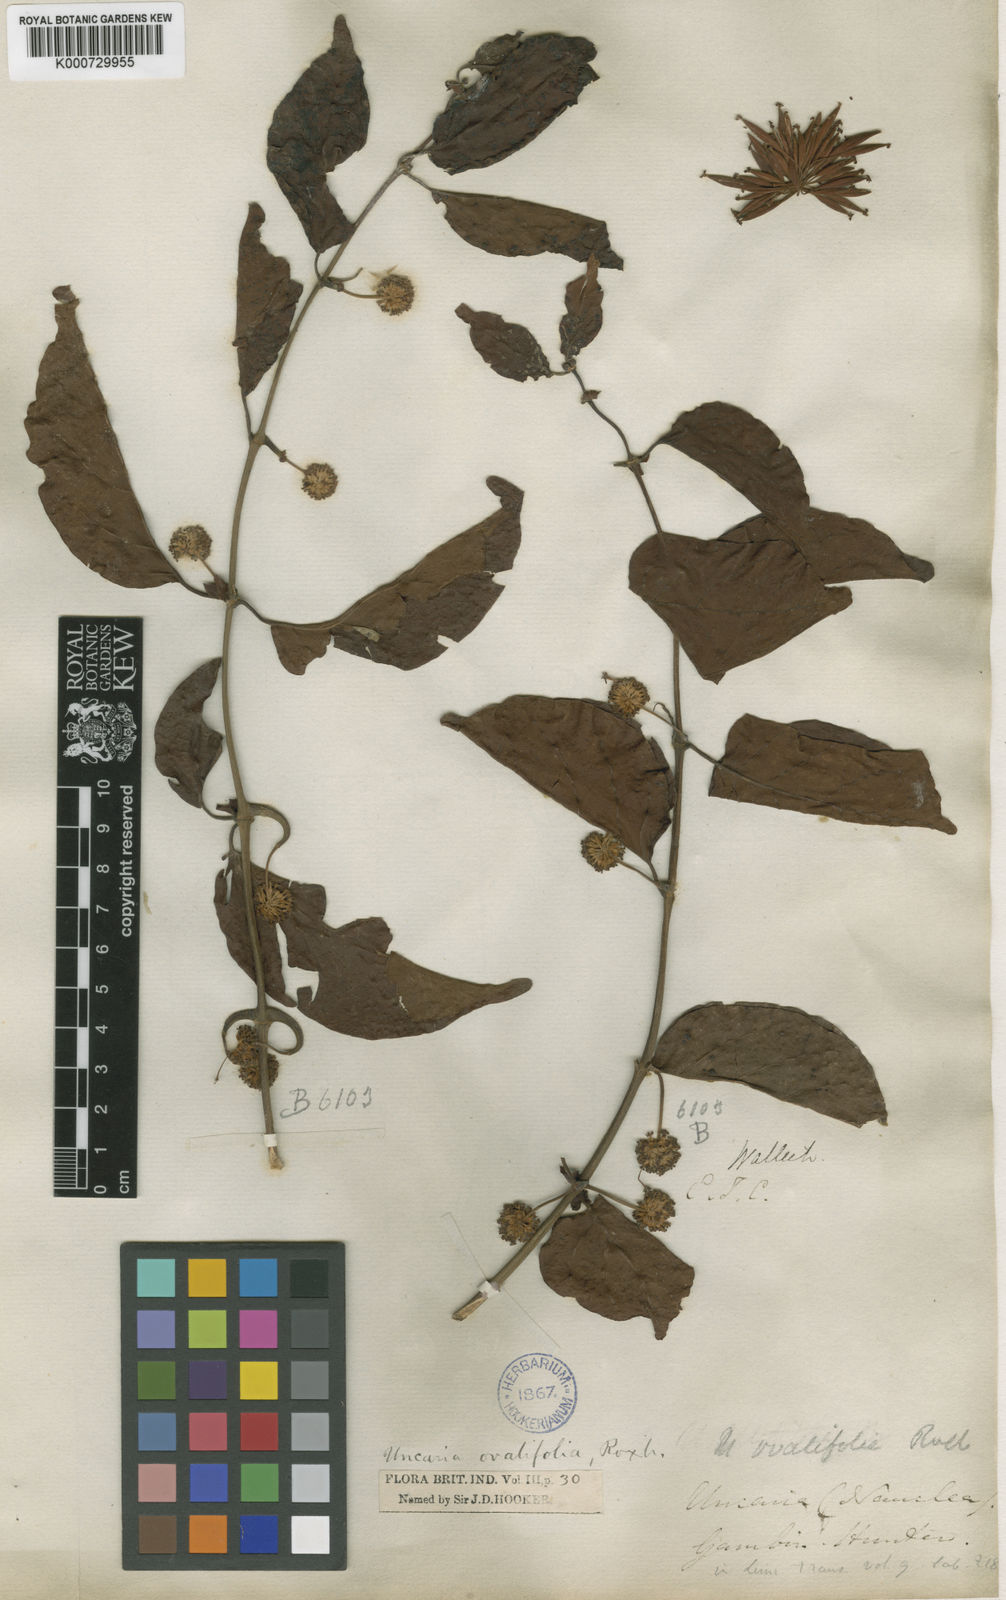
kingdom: Plantae
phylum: Tracheophyta
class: Magnoliopsida
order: Gentianales
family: Rubiaceae
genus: Uncaria
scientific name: Uncaria acida
